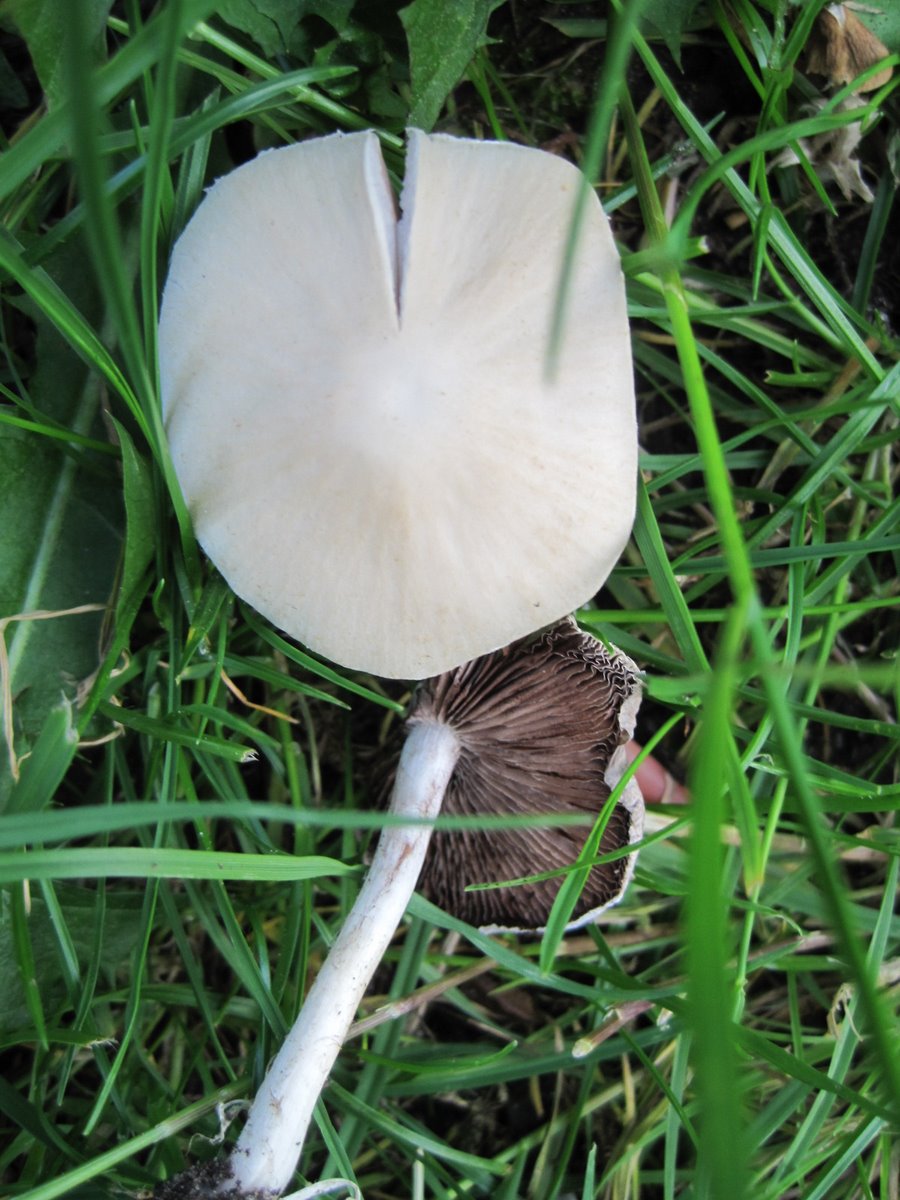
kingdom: Fungi
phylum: Basidiomycota
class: Agaricomycetes
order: Agaricales
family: Psathyrellaceae
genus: Candolleomyces
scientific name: Candolleomyces candolleanus
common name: Candolles mørkhat
